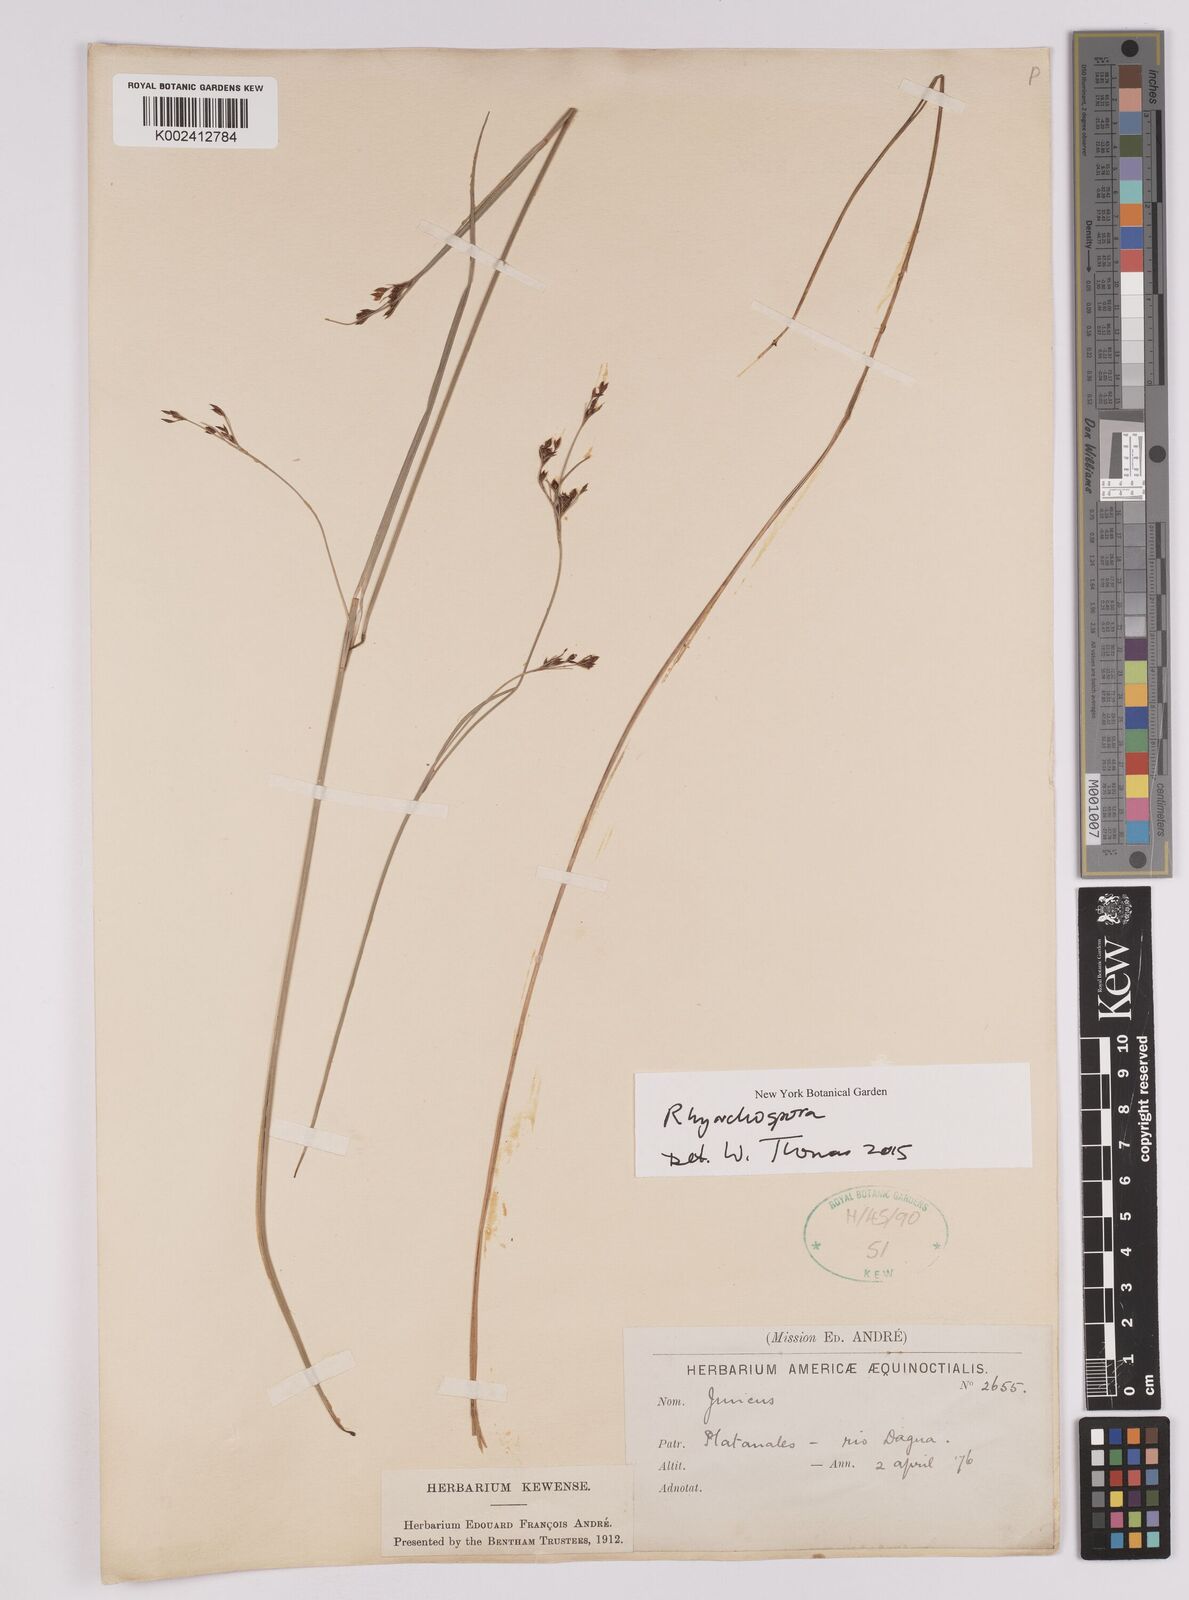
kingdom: Plantae
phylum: Tracheophyta
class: Liliopsida
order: Poales
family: Cyperaceae
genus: Rhynchospora
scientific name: Rhynchospora
